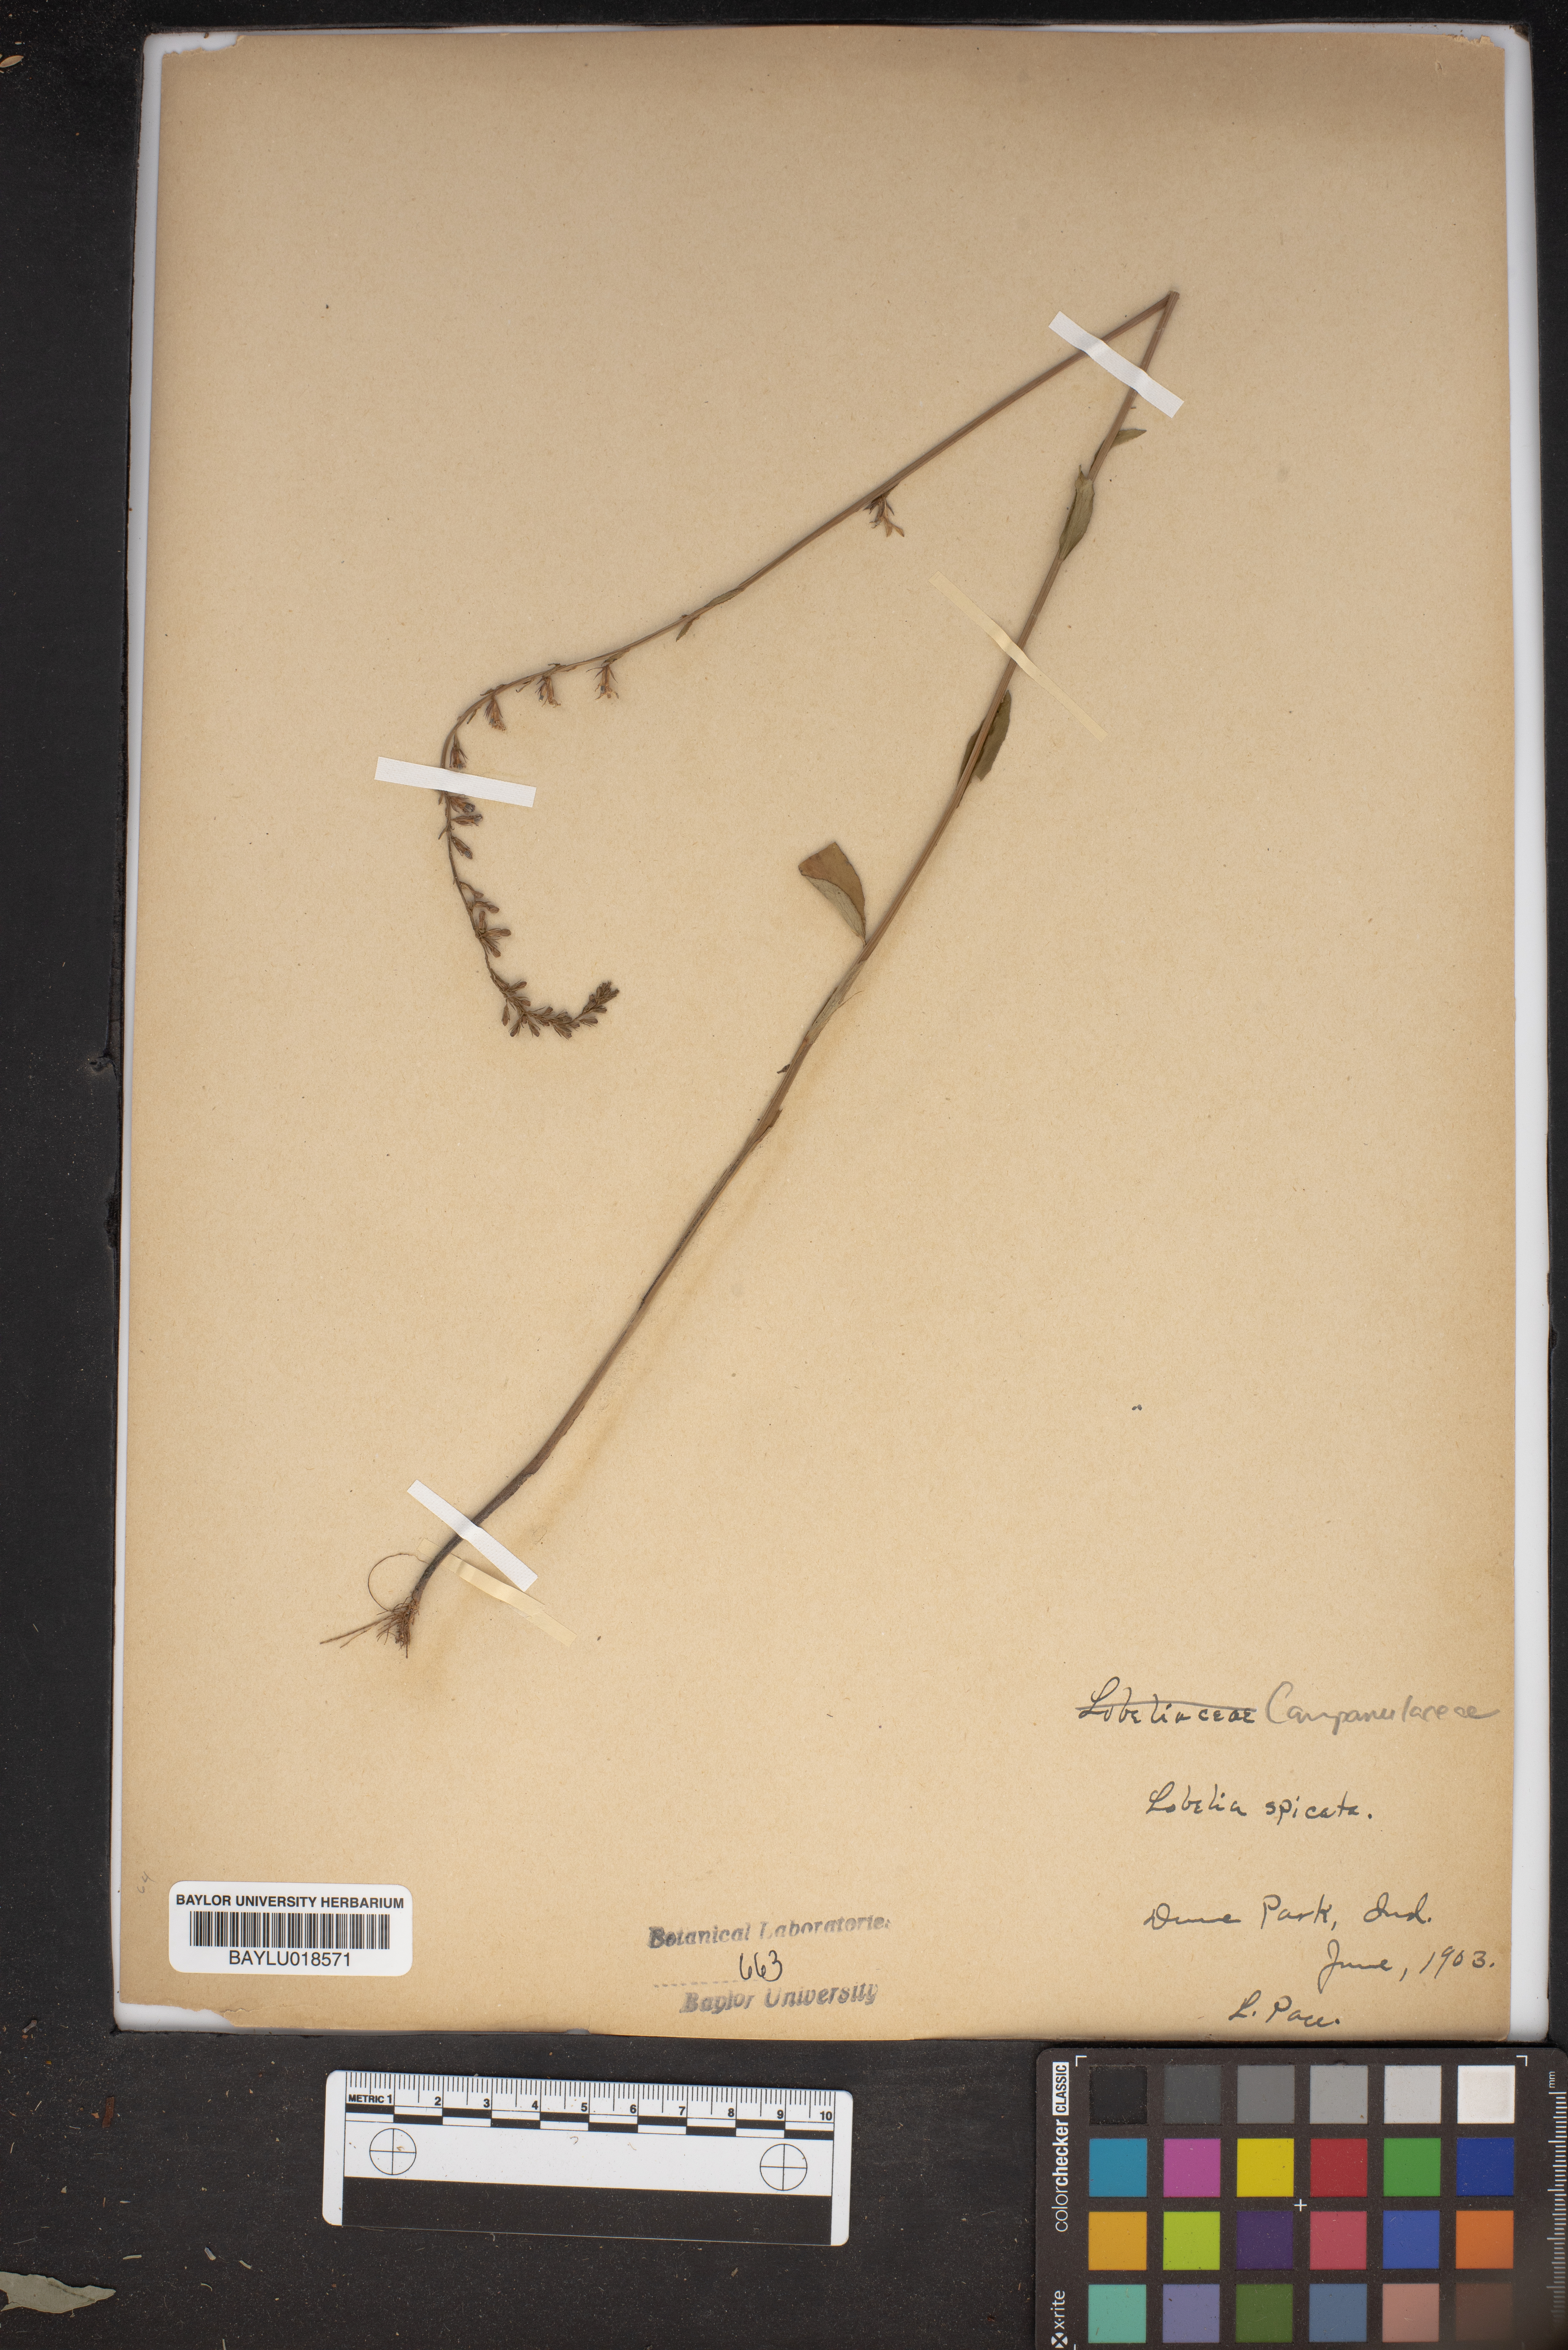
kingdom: Plantae
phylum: Tracheophyta
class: Magnoliopsida
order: Asterales
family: Campanulaceae
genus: Lobelia
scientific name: Lobelia spicata
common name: Pale-spike lobelia
